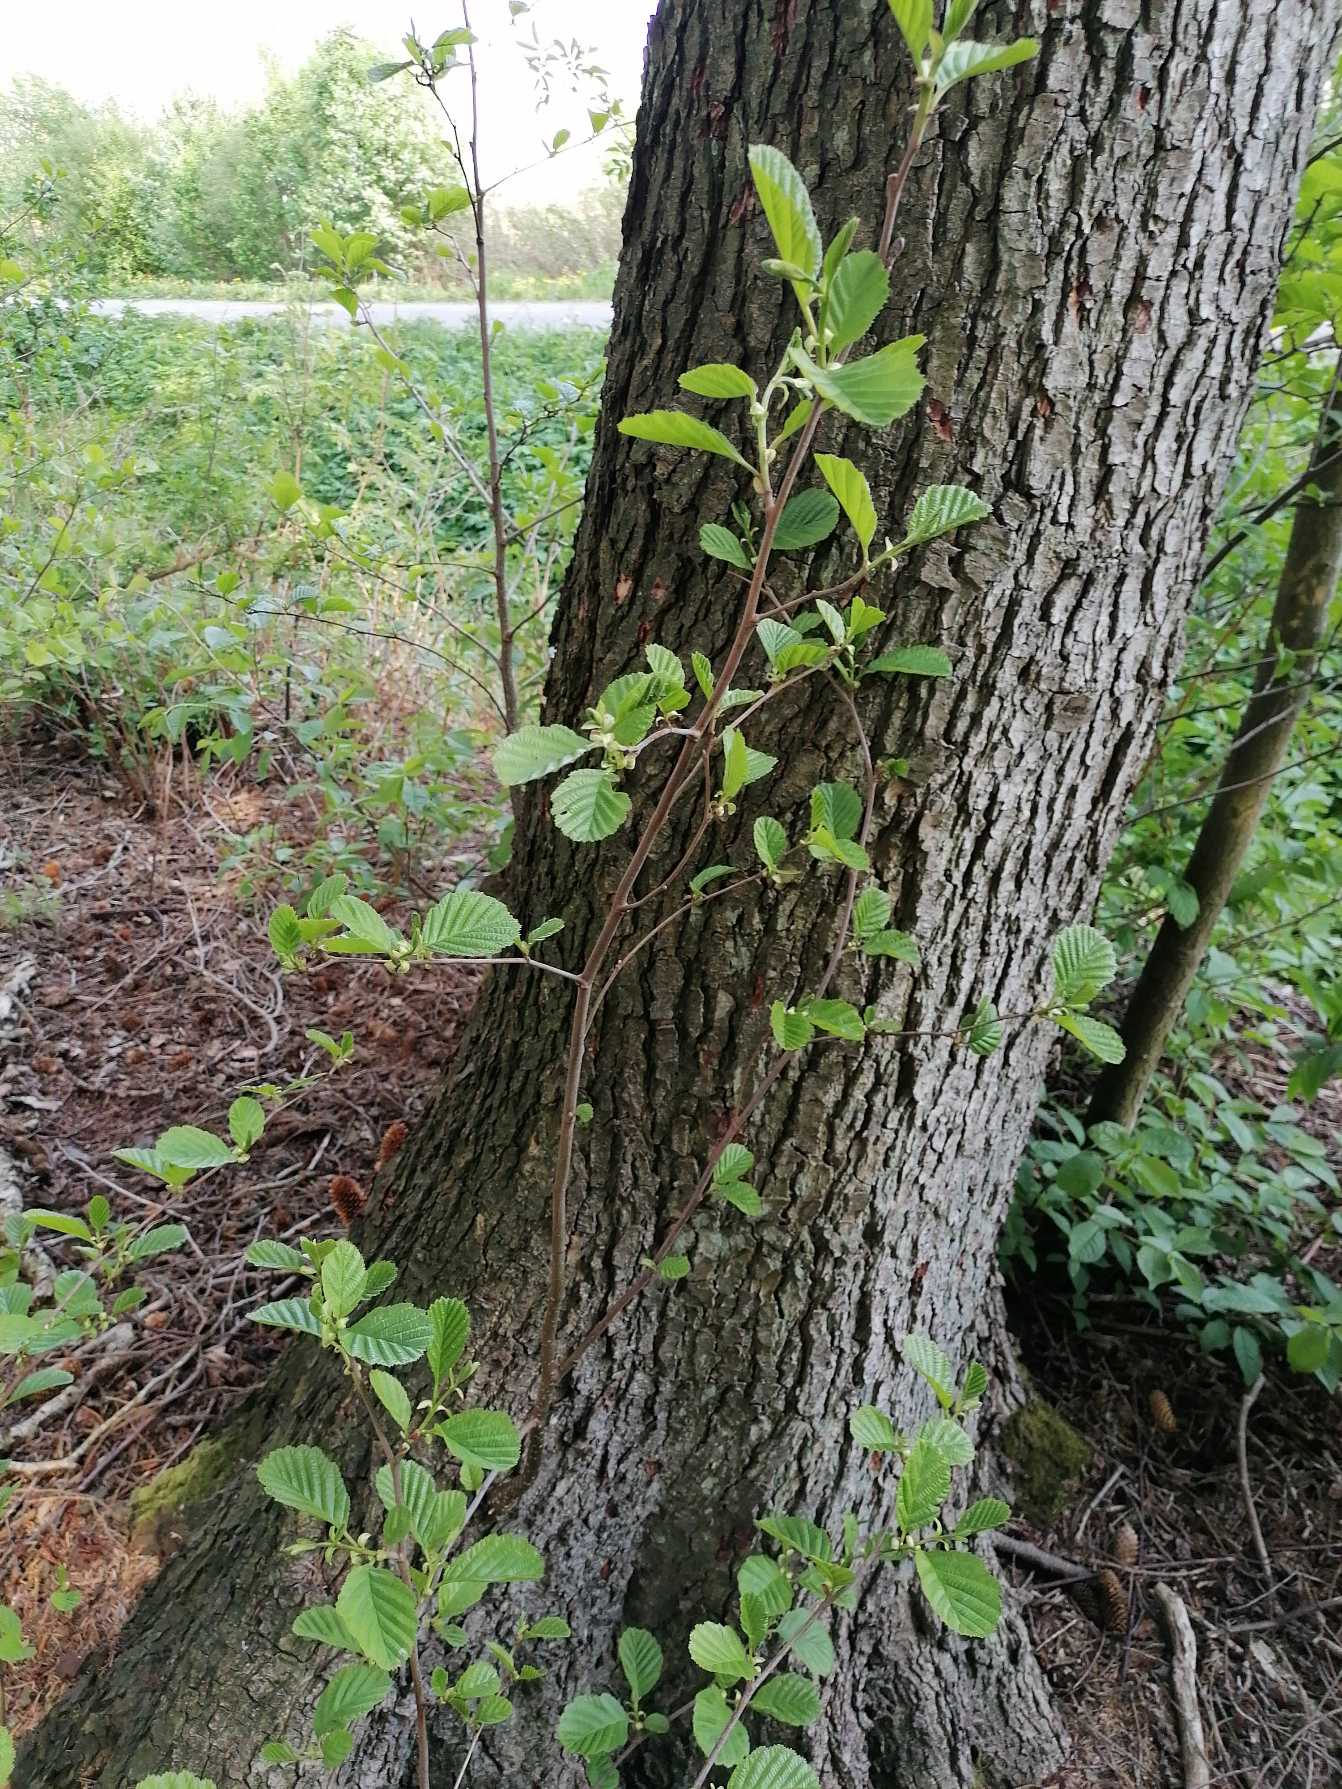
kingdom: Plantae
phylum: Tracheophyta
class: Magnoliopsida
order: Fagales
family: Betulaceae
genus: Alnus
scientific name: Alnus glutinosa
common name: Rød-el
